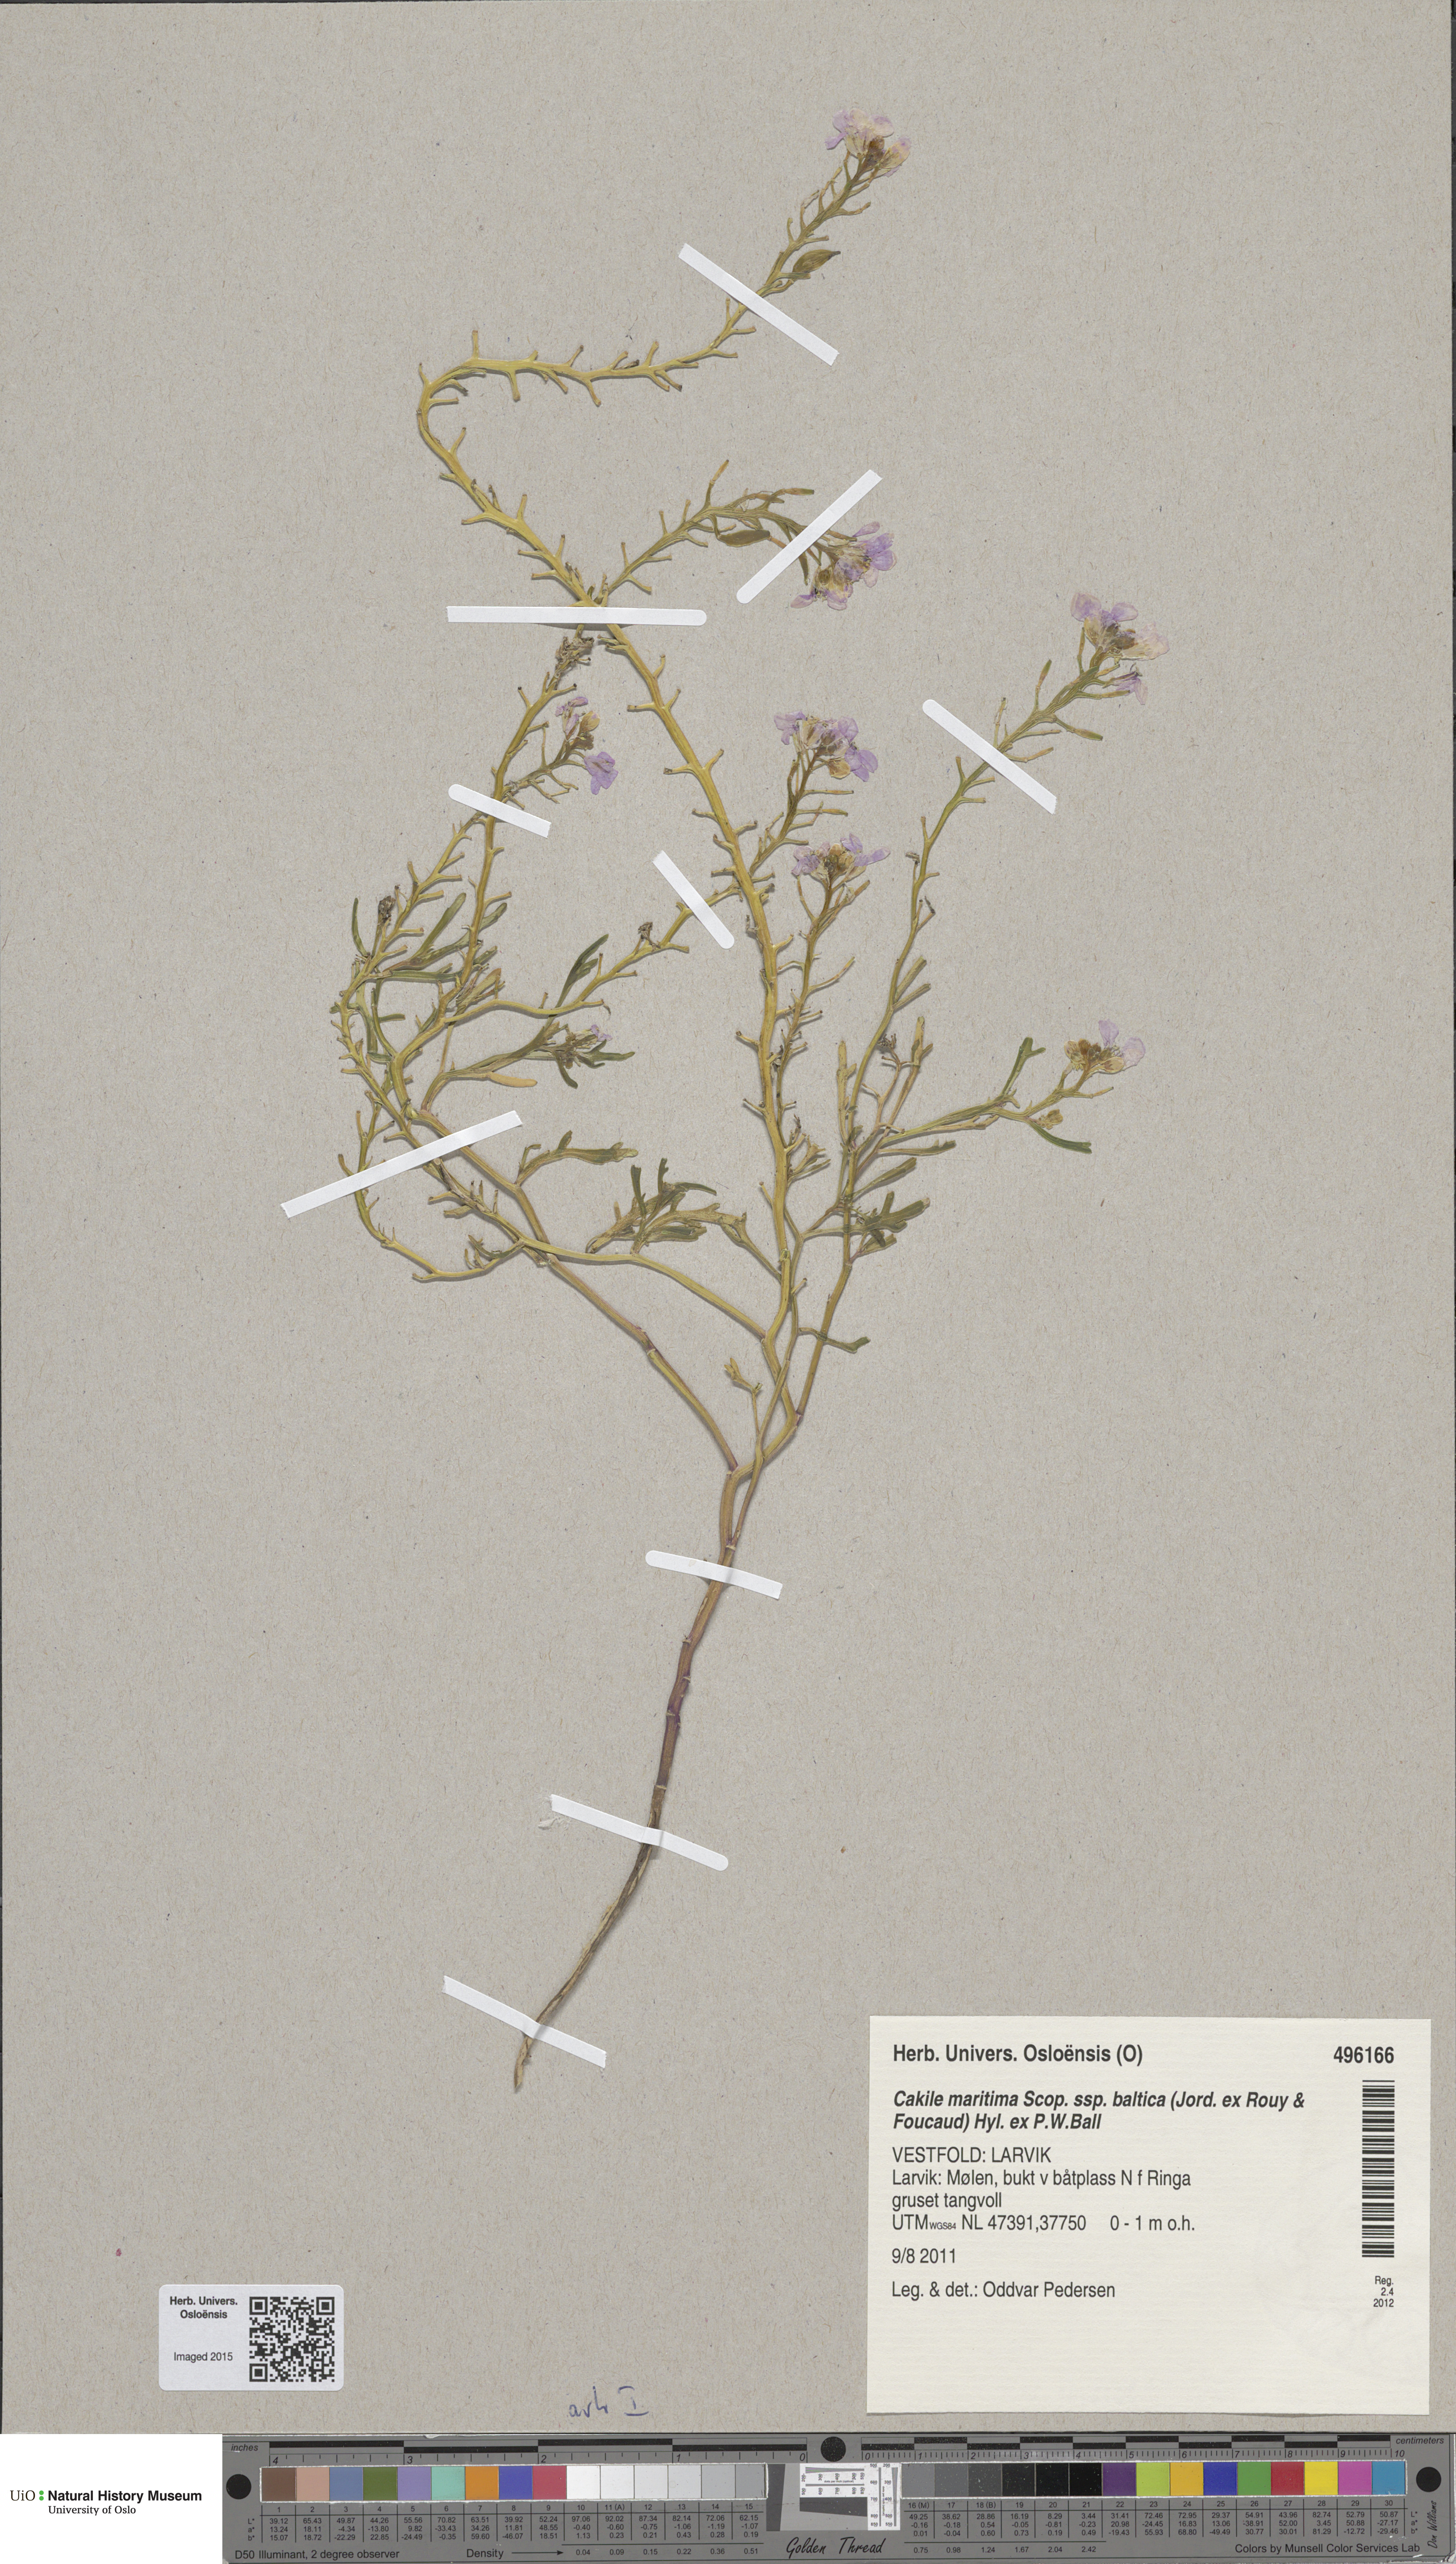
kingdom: Plantae
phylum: Tracheophyta
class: Magnoliopsida
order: Brassicales
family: Brassicaceae
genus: Cakile
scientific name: Cakile maritima
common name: Sea rocket
